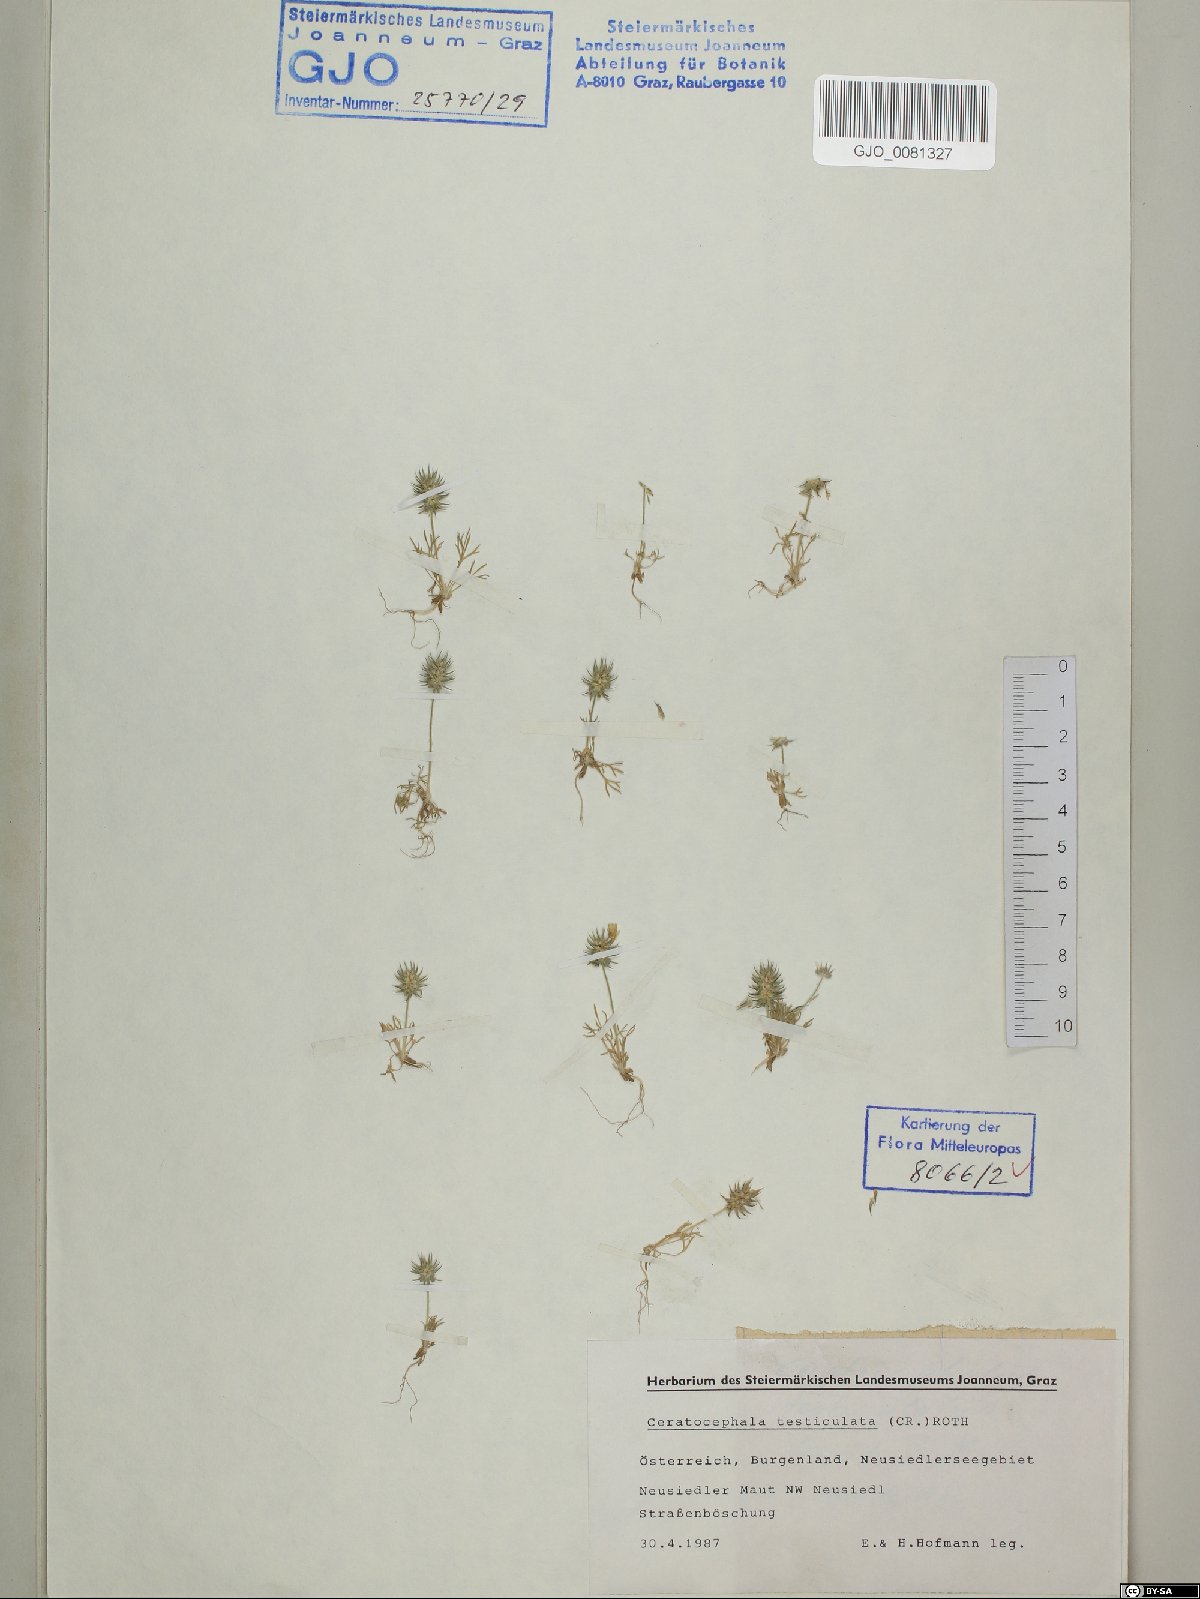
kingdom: Plantae
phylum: Tracheophyta
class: Magnoliopsida
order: Ranunculales
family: Ranunculaceae
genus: Ceratocephala
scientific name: Ceratocephala orthoceras
